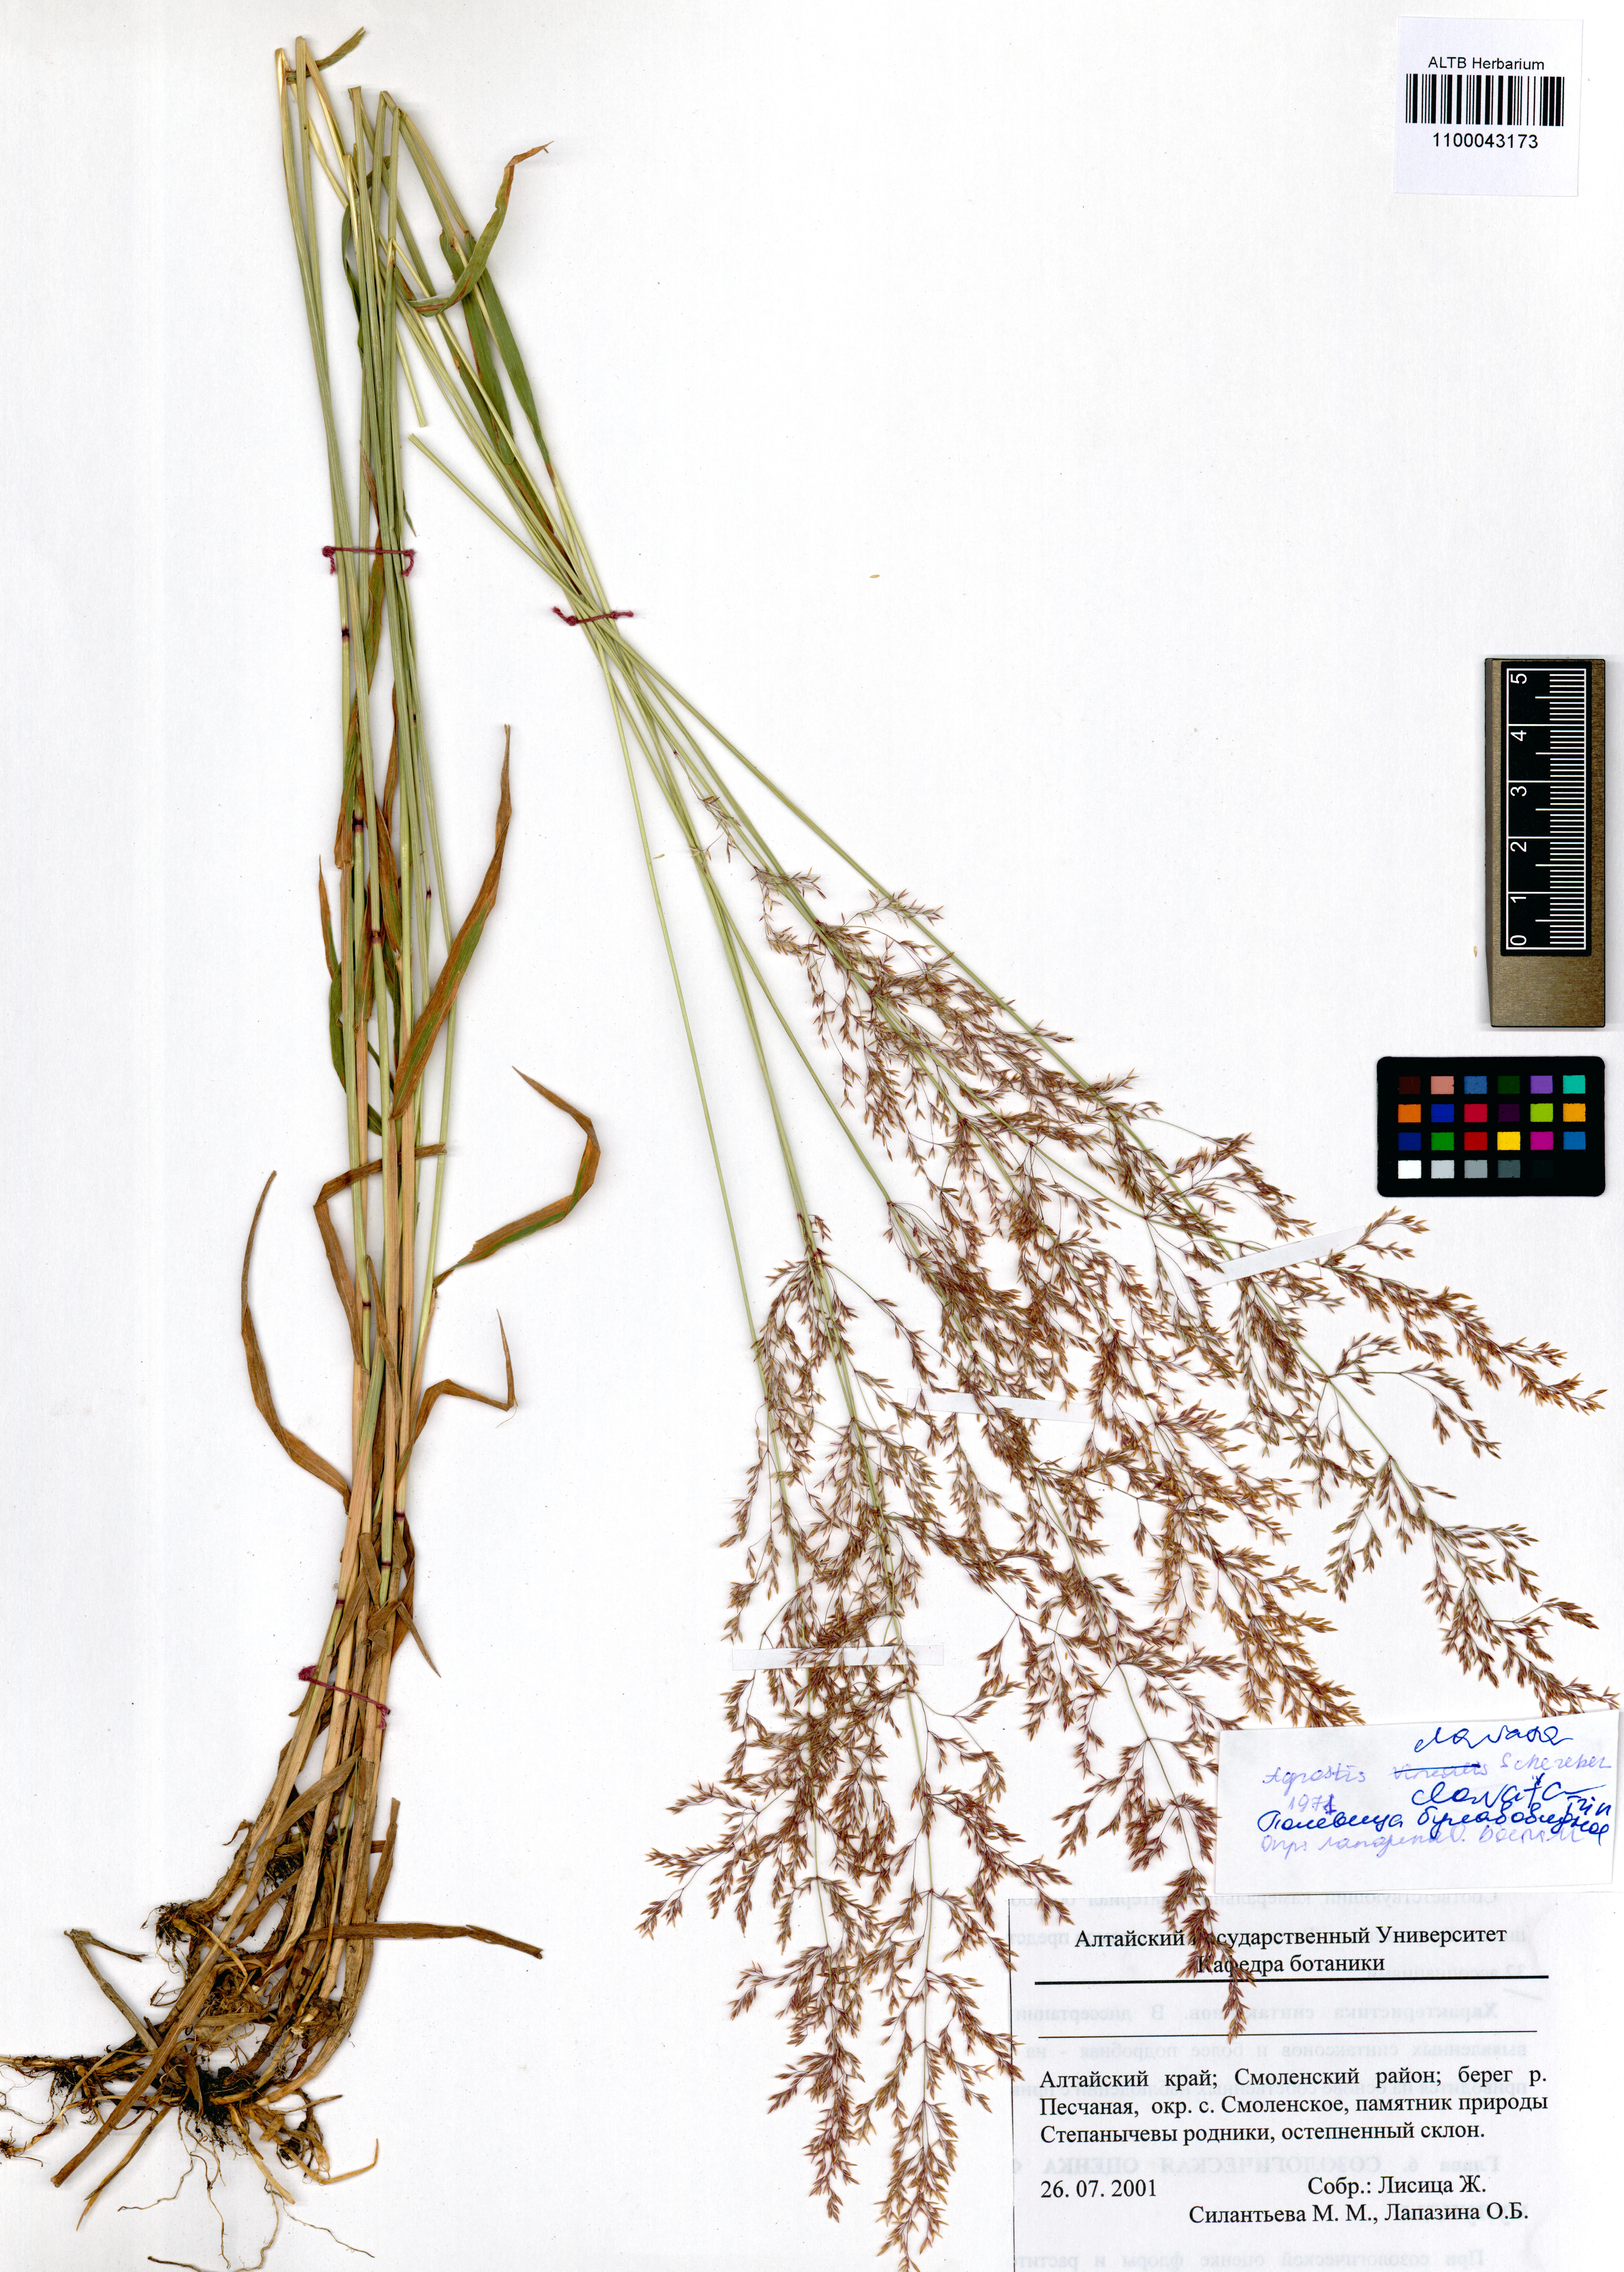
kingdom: Plantae
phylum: Tracheophyta
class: Liliopsida
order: Poales
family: Poaceae
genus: Agrostis
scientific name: Agrostis clavata
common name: Clavate bent
